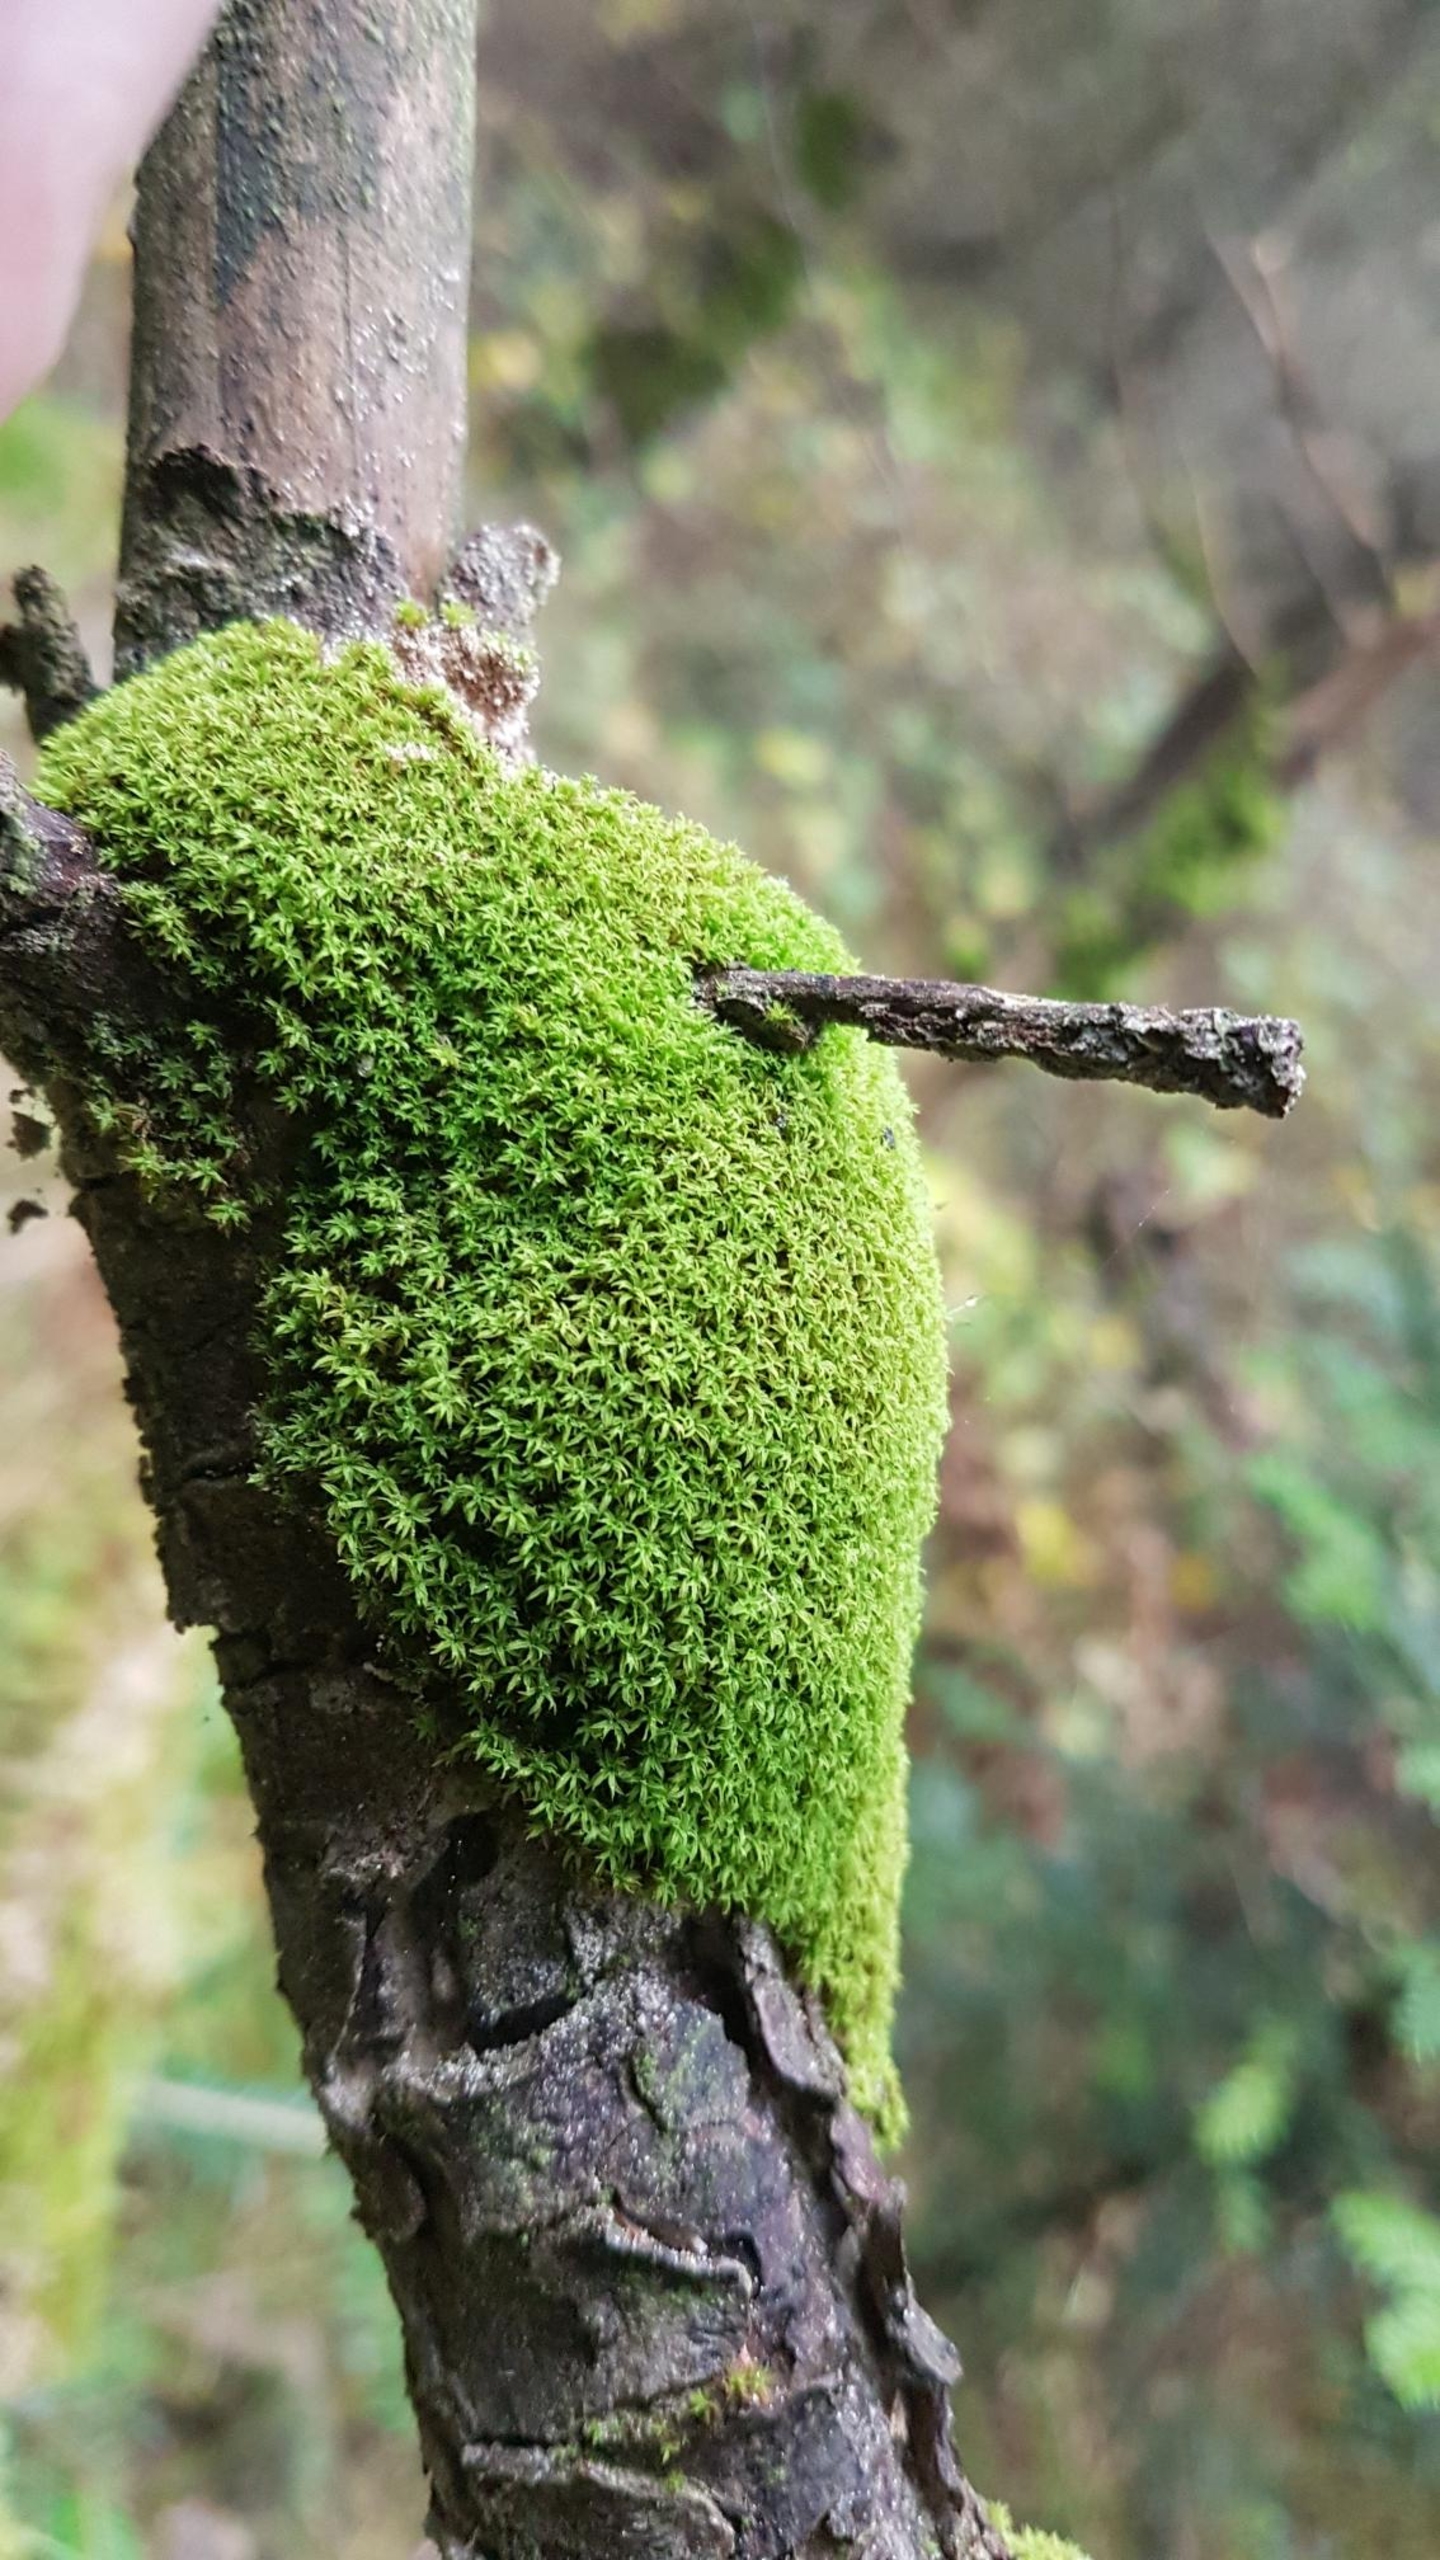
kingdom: Plantae
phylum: Bryophyta
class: Bryopsida
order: Orthotrichales
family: Orthotrichaceae
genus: Zygodon
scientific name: Zygodon viridissimus
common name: Grøn køllemos
